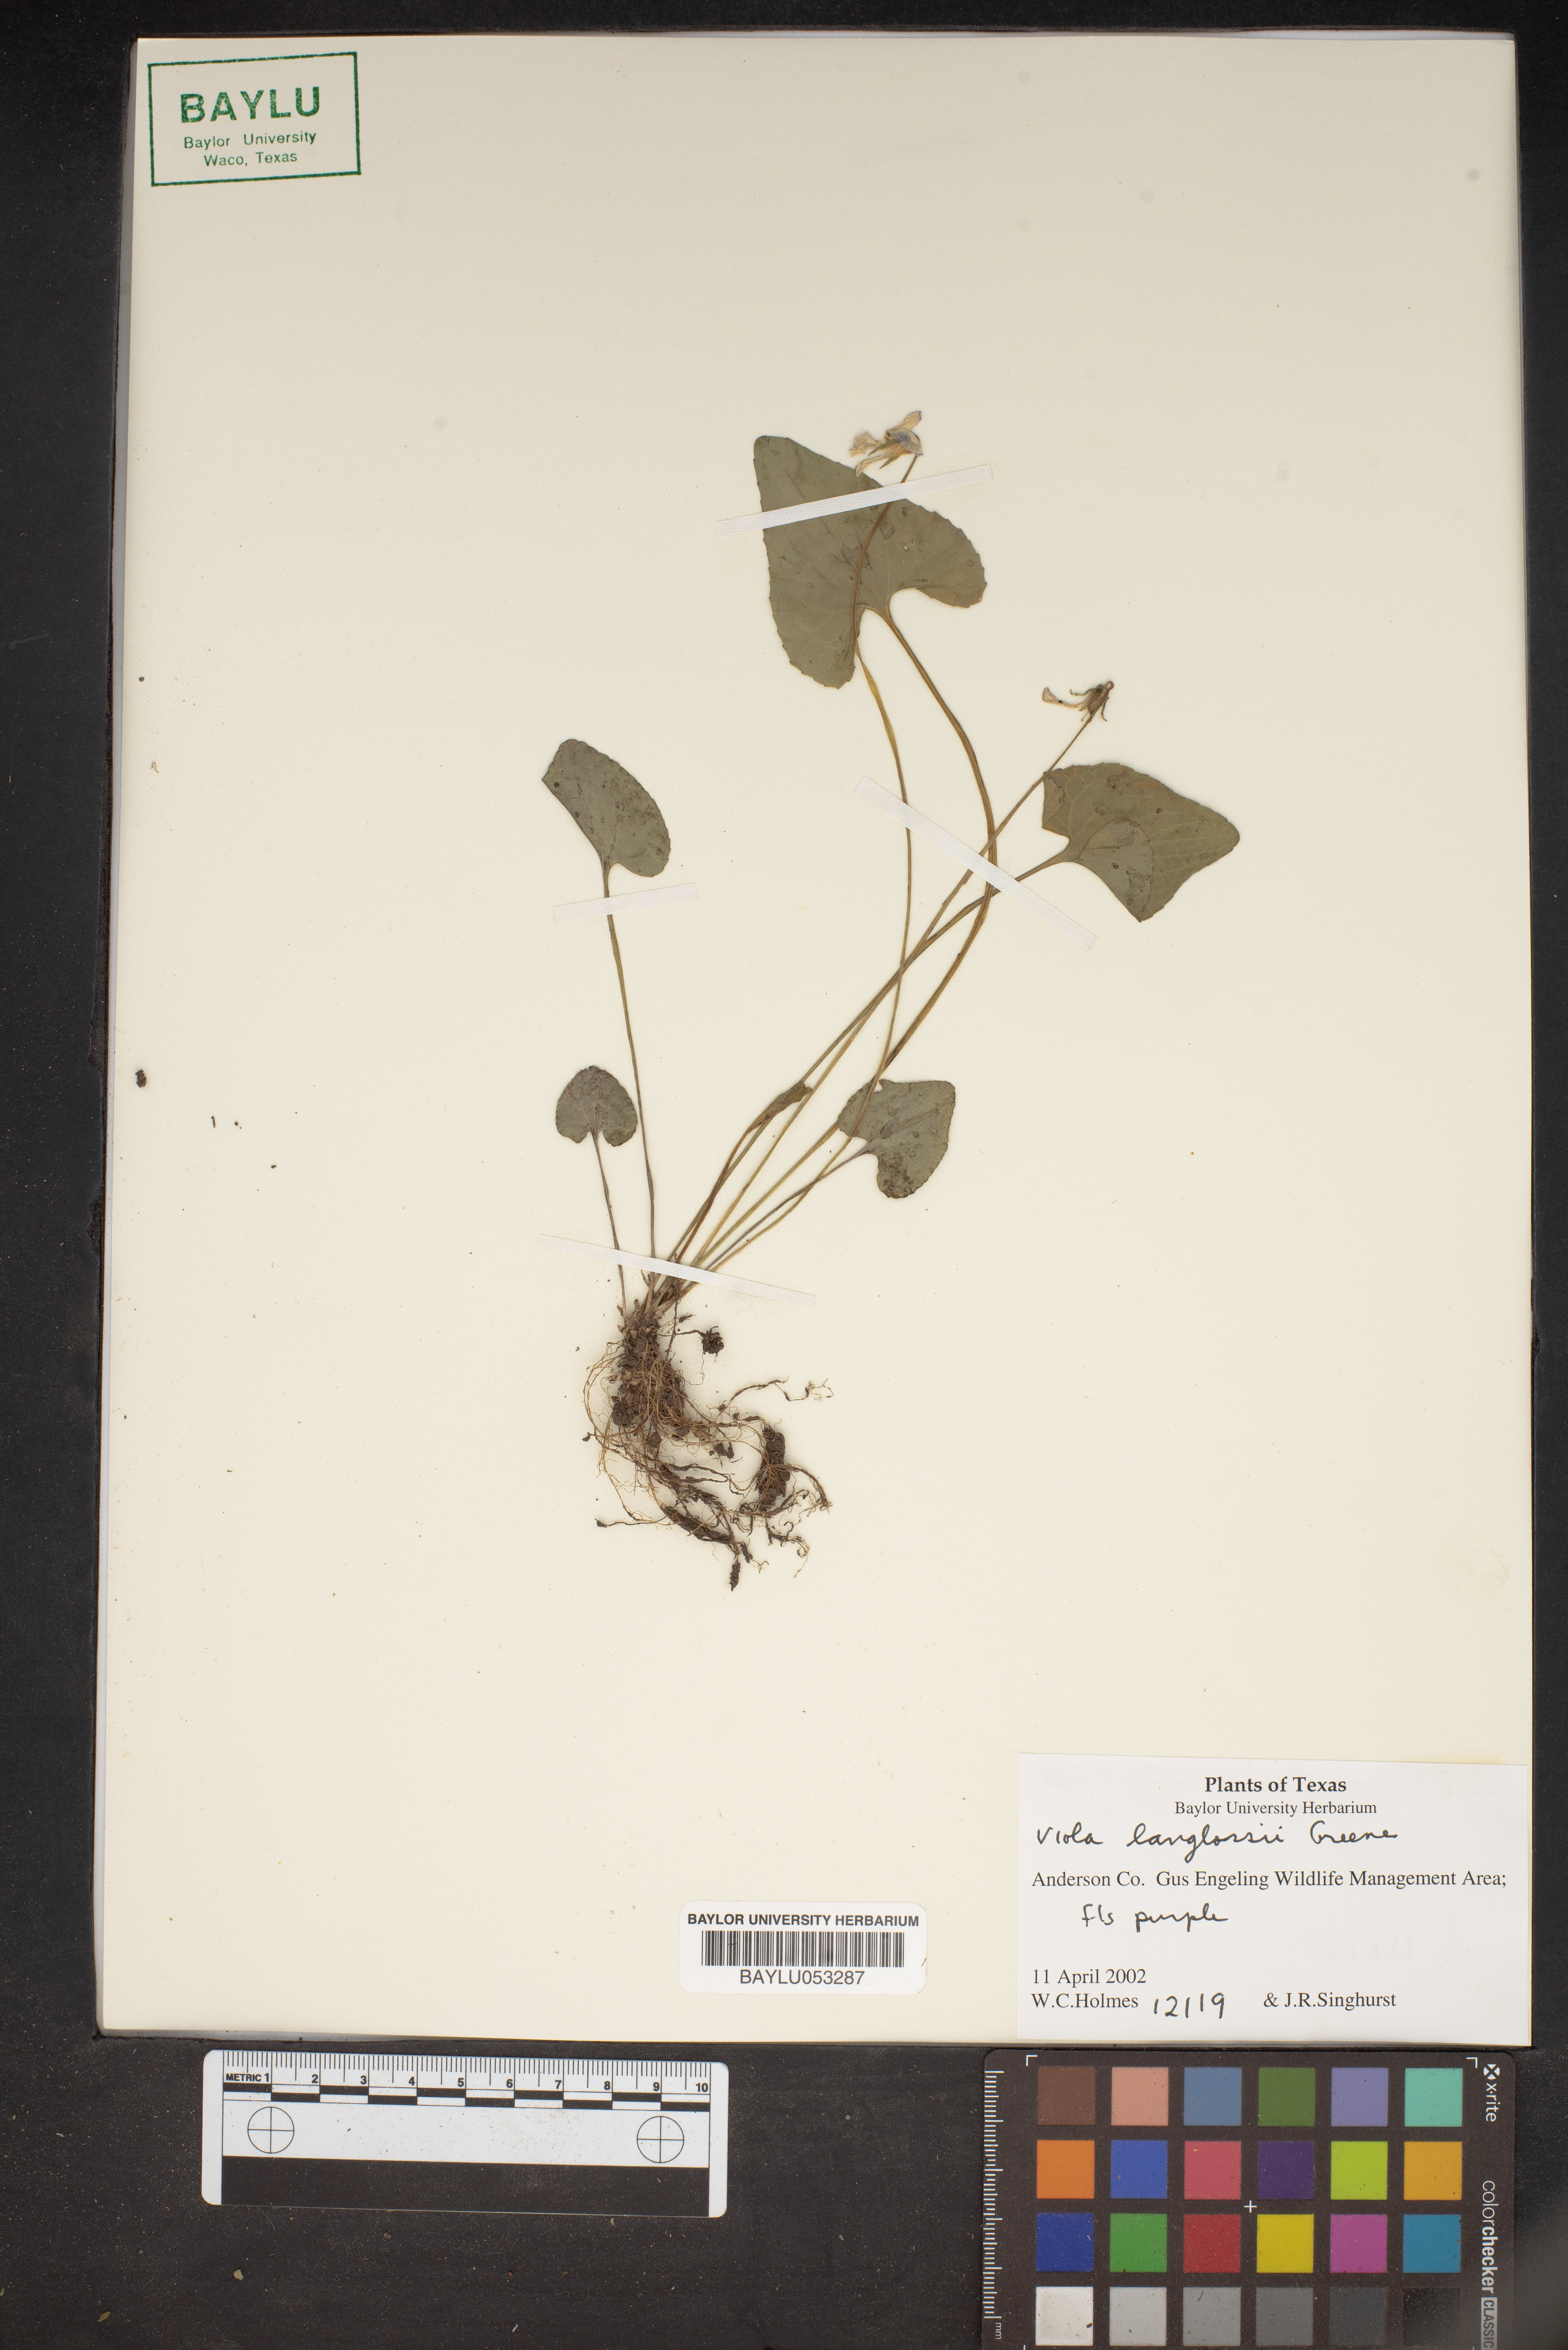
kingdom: Plantae
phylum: Tracheophyta
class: Magnoliopsida
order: Malpighiales
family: Violaceae
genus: Viola
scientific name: Viola langloisii
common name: Langlois' violet
